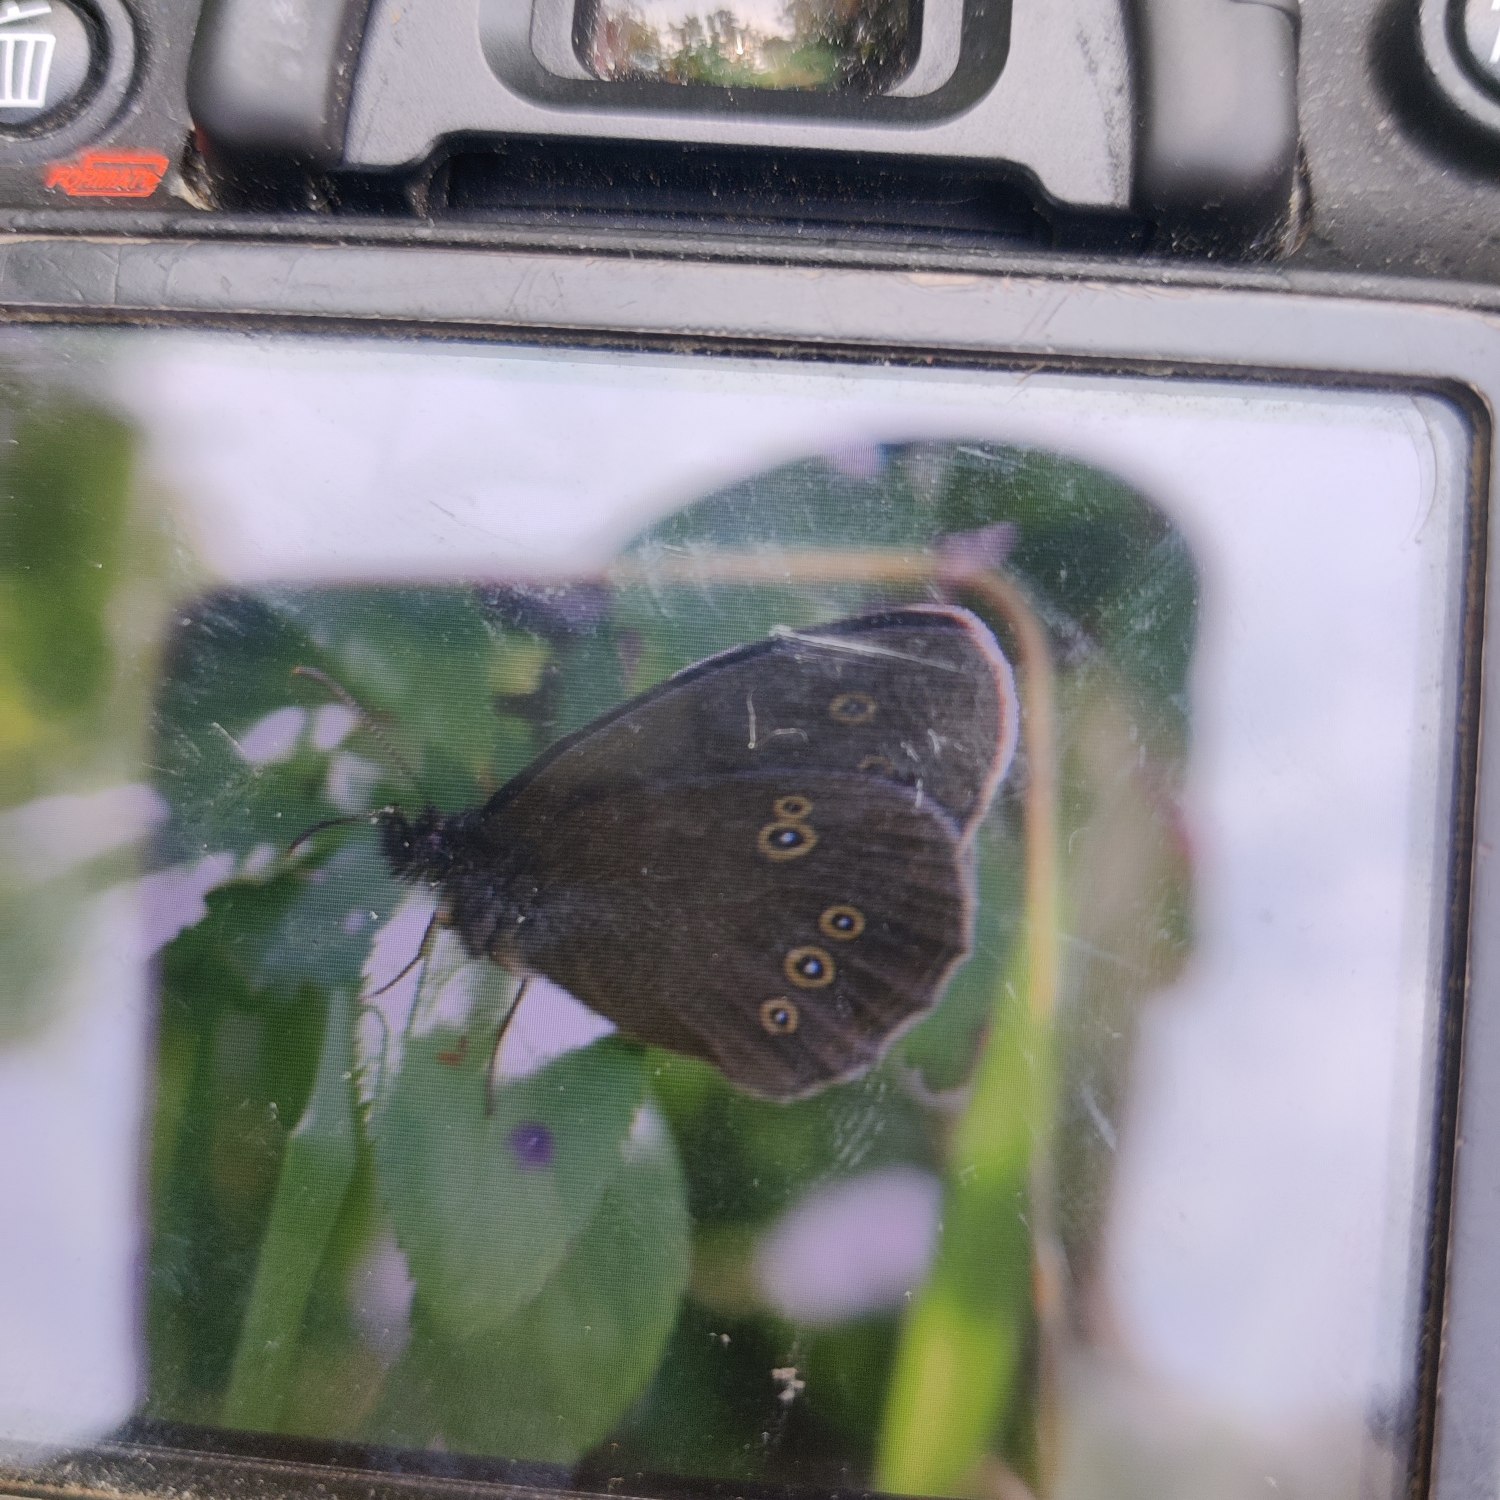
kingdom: Animalia
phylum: Arthropoda
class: Insecta
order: Lepidoptera
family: Nymphalidae
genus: Aphantopus
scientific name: Aphantopus hyperantus
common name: Engrandøje
